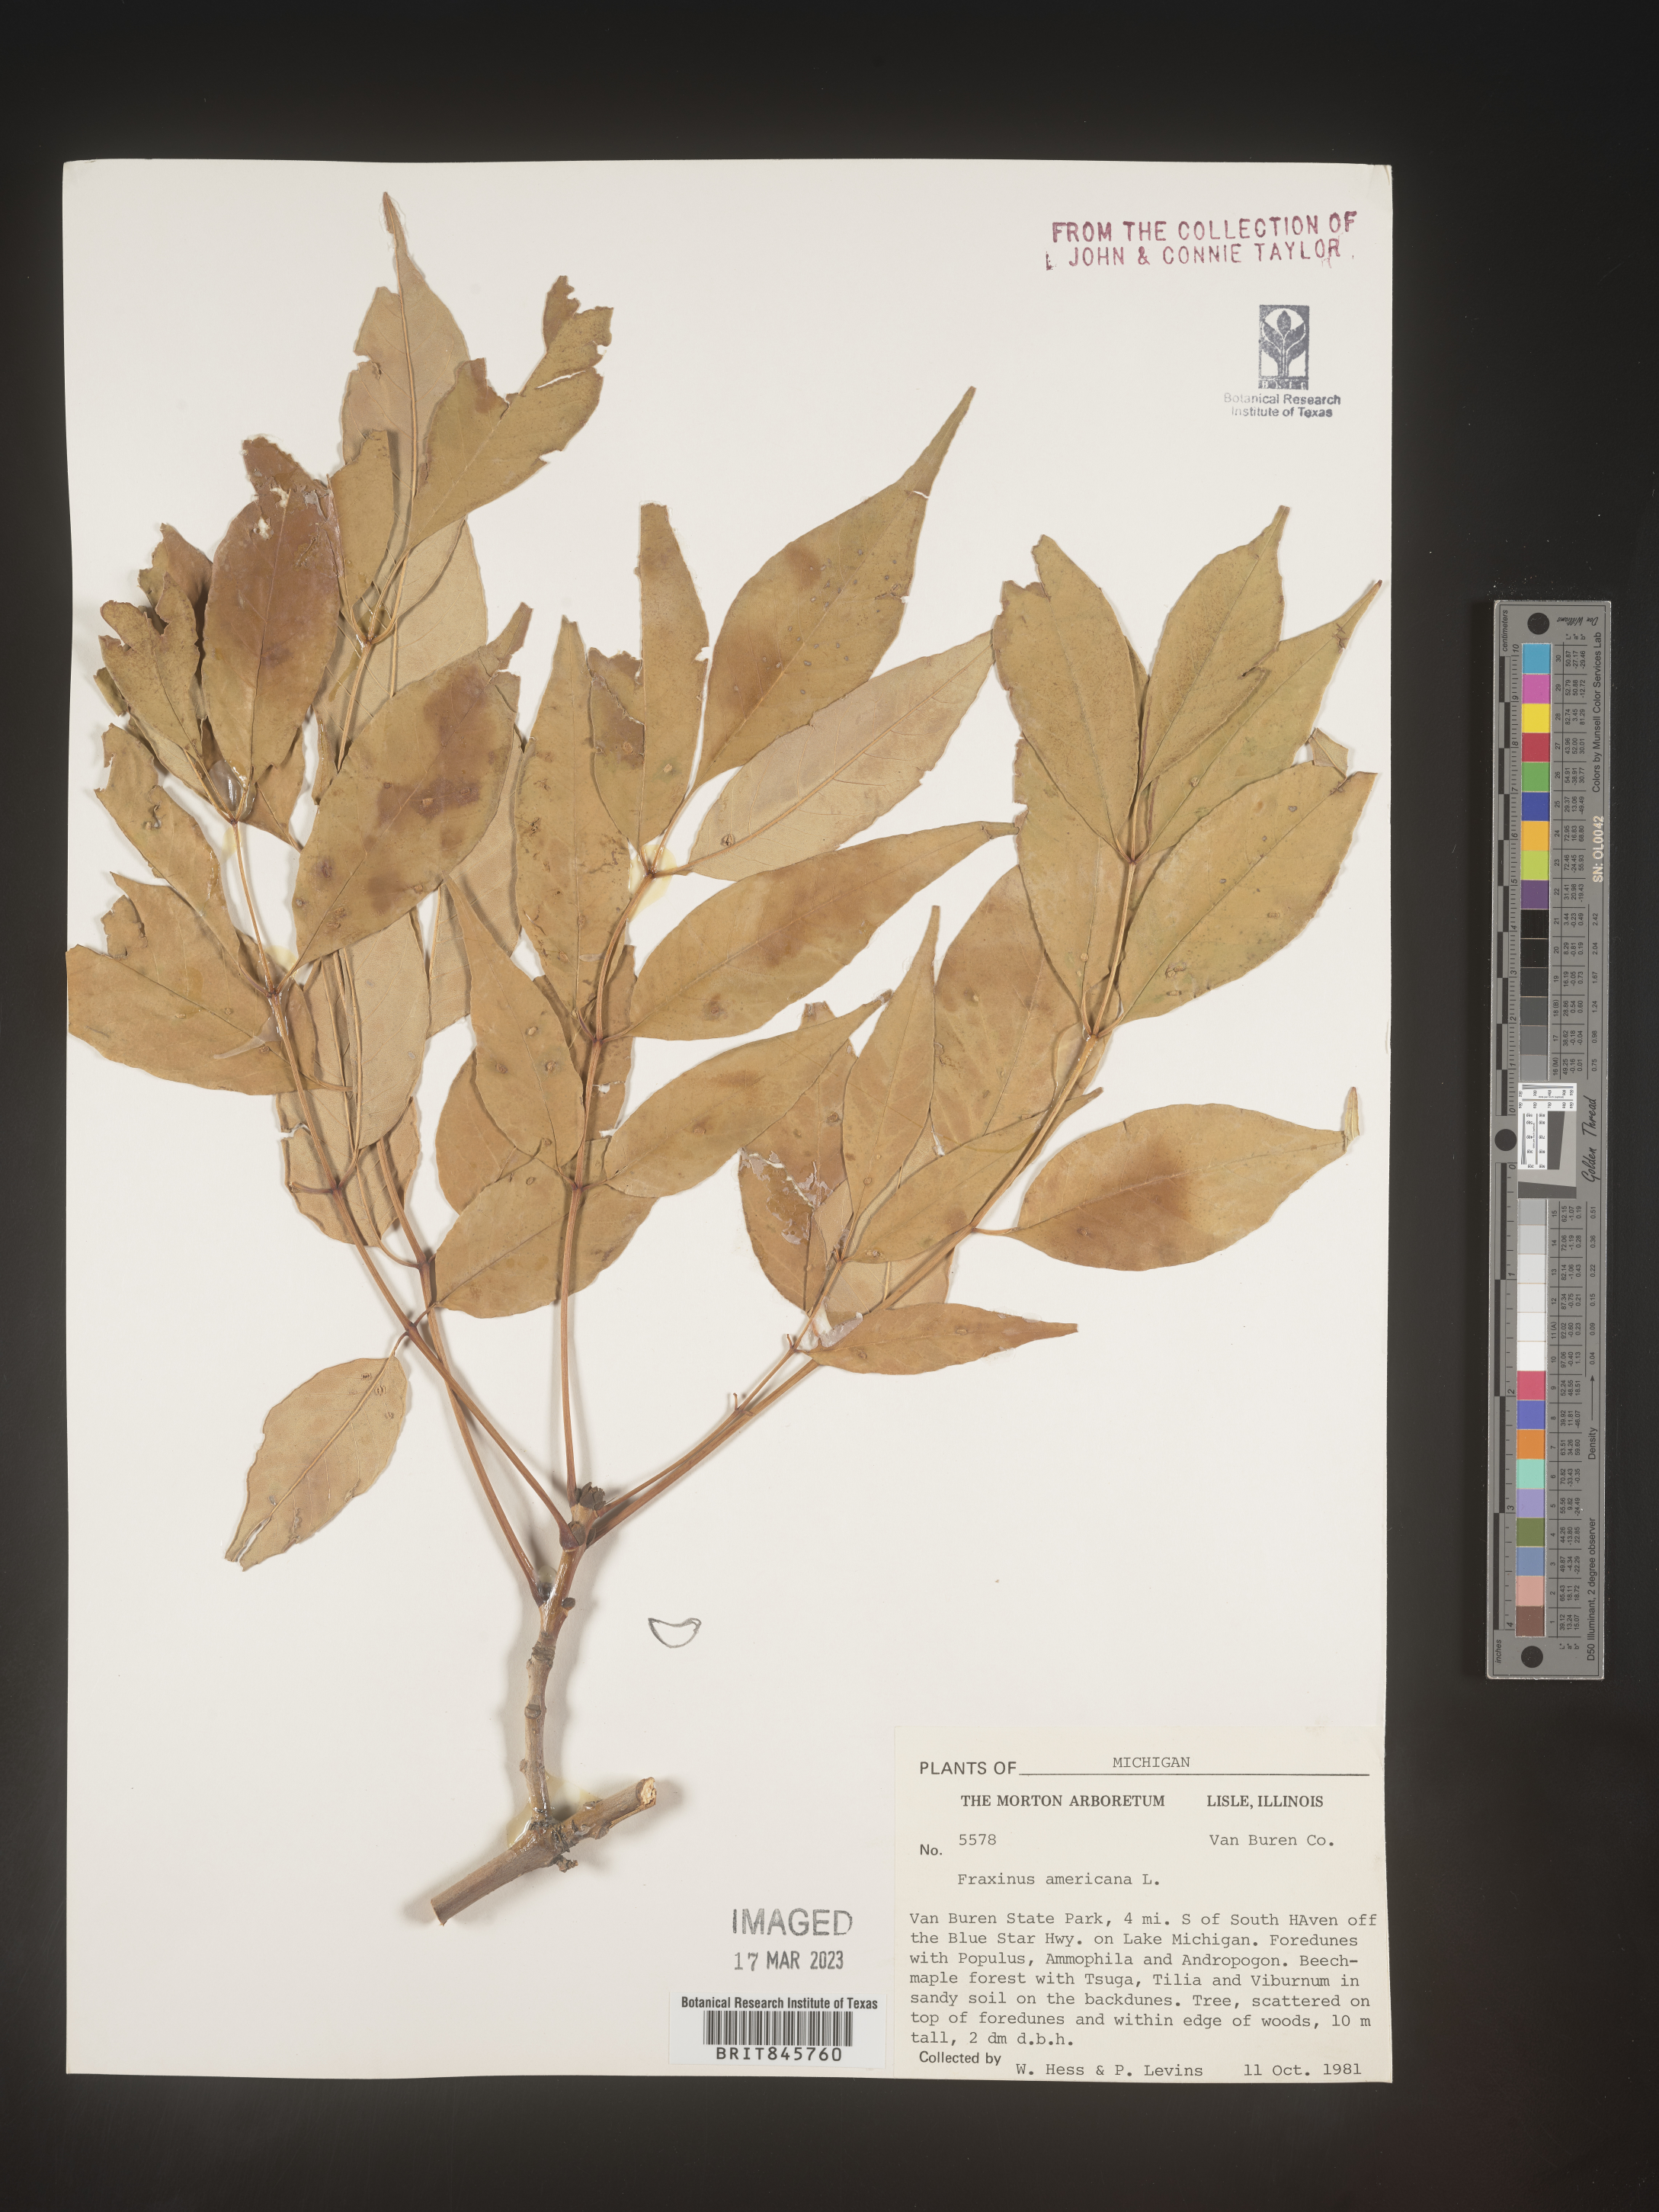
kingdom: Plantae
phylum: Tracheophyta
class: Magnoliopsida
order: Lamiales
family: Oleaceae
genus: Fraxinus
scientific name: Fraxinus americana
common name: White ash
